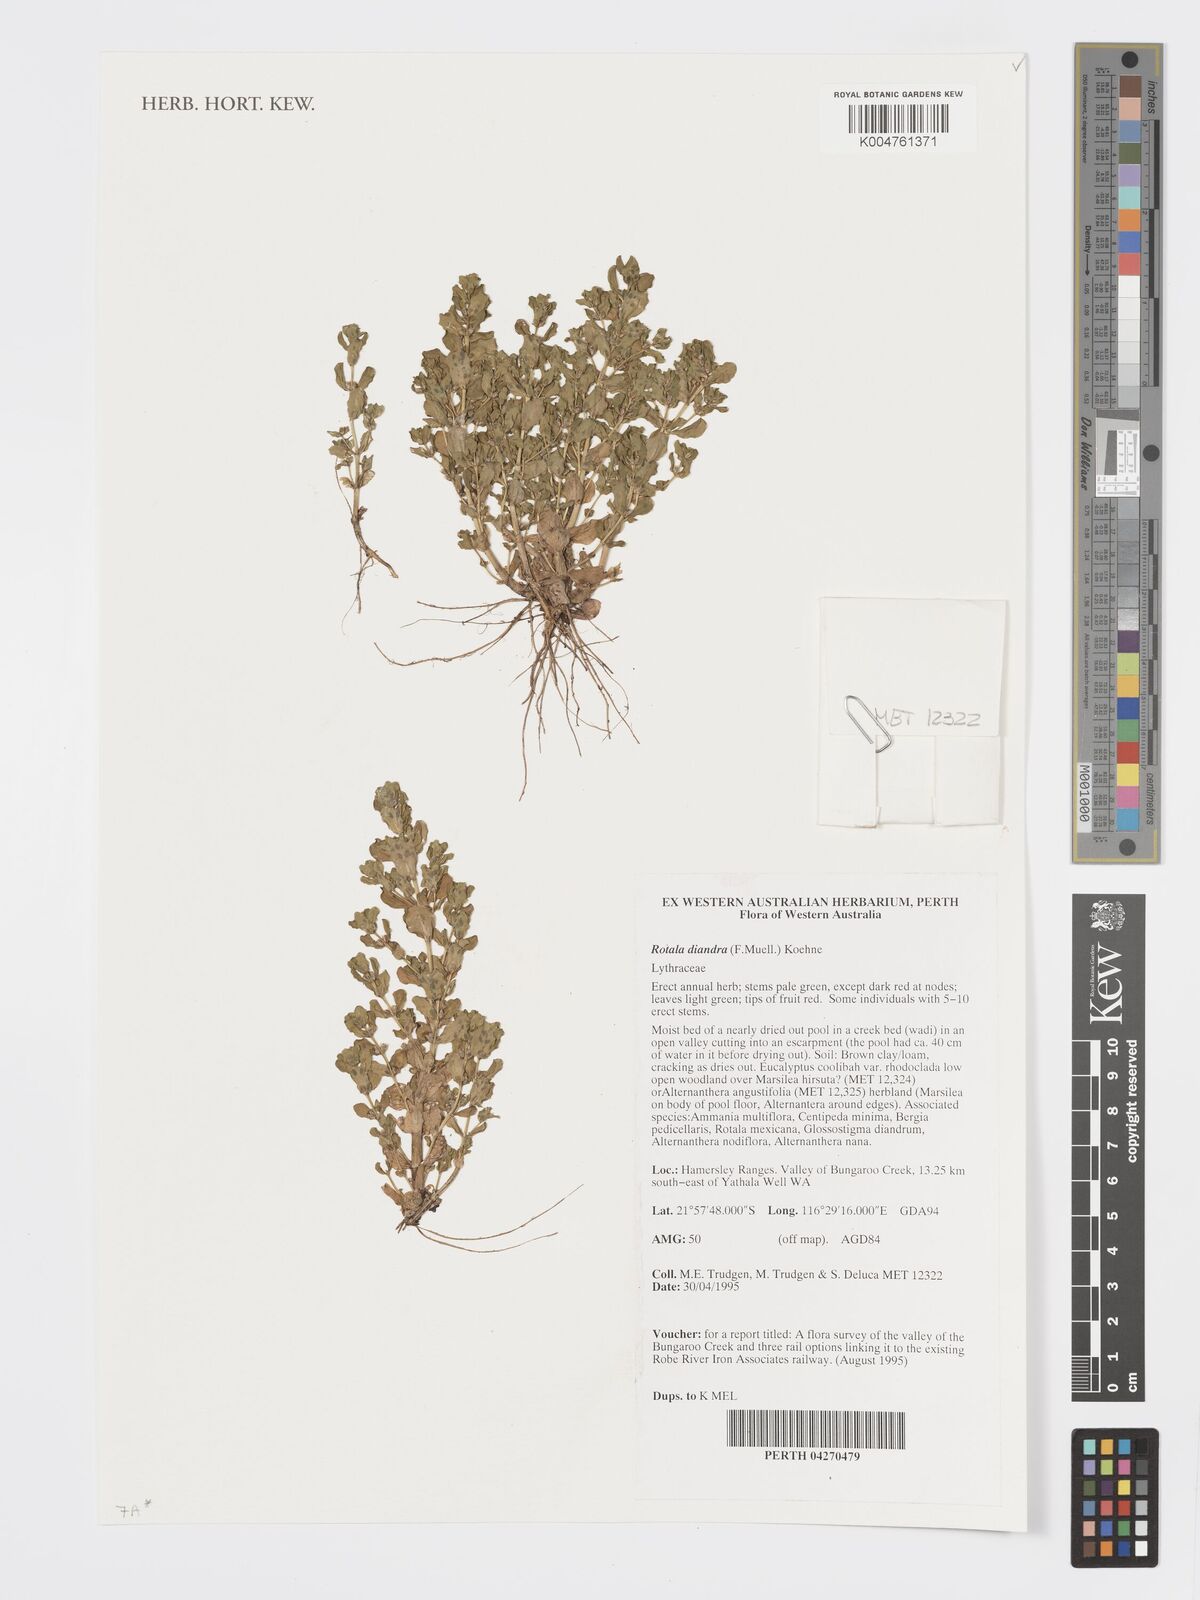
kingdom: Plantae
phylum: Tracheophyta
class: Magnoliopsida
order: Myrtales
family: Lythraceae
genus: Rotala
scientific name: Rotala diandra
